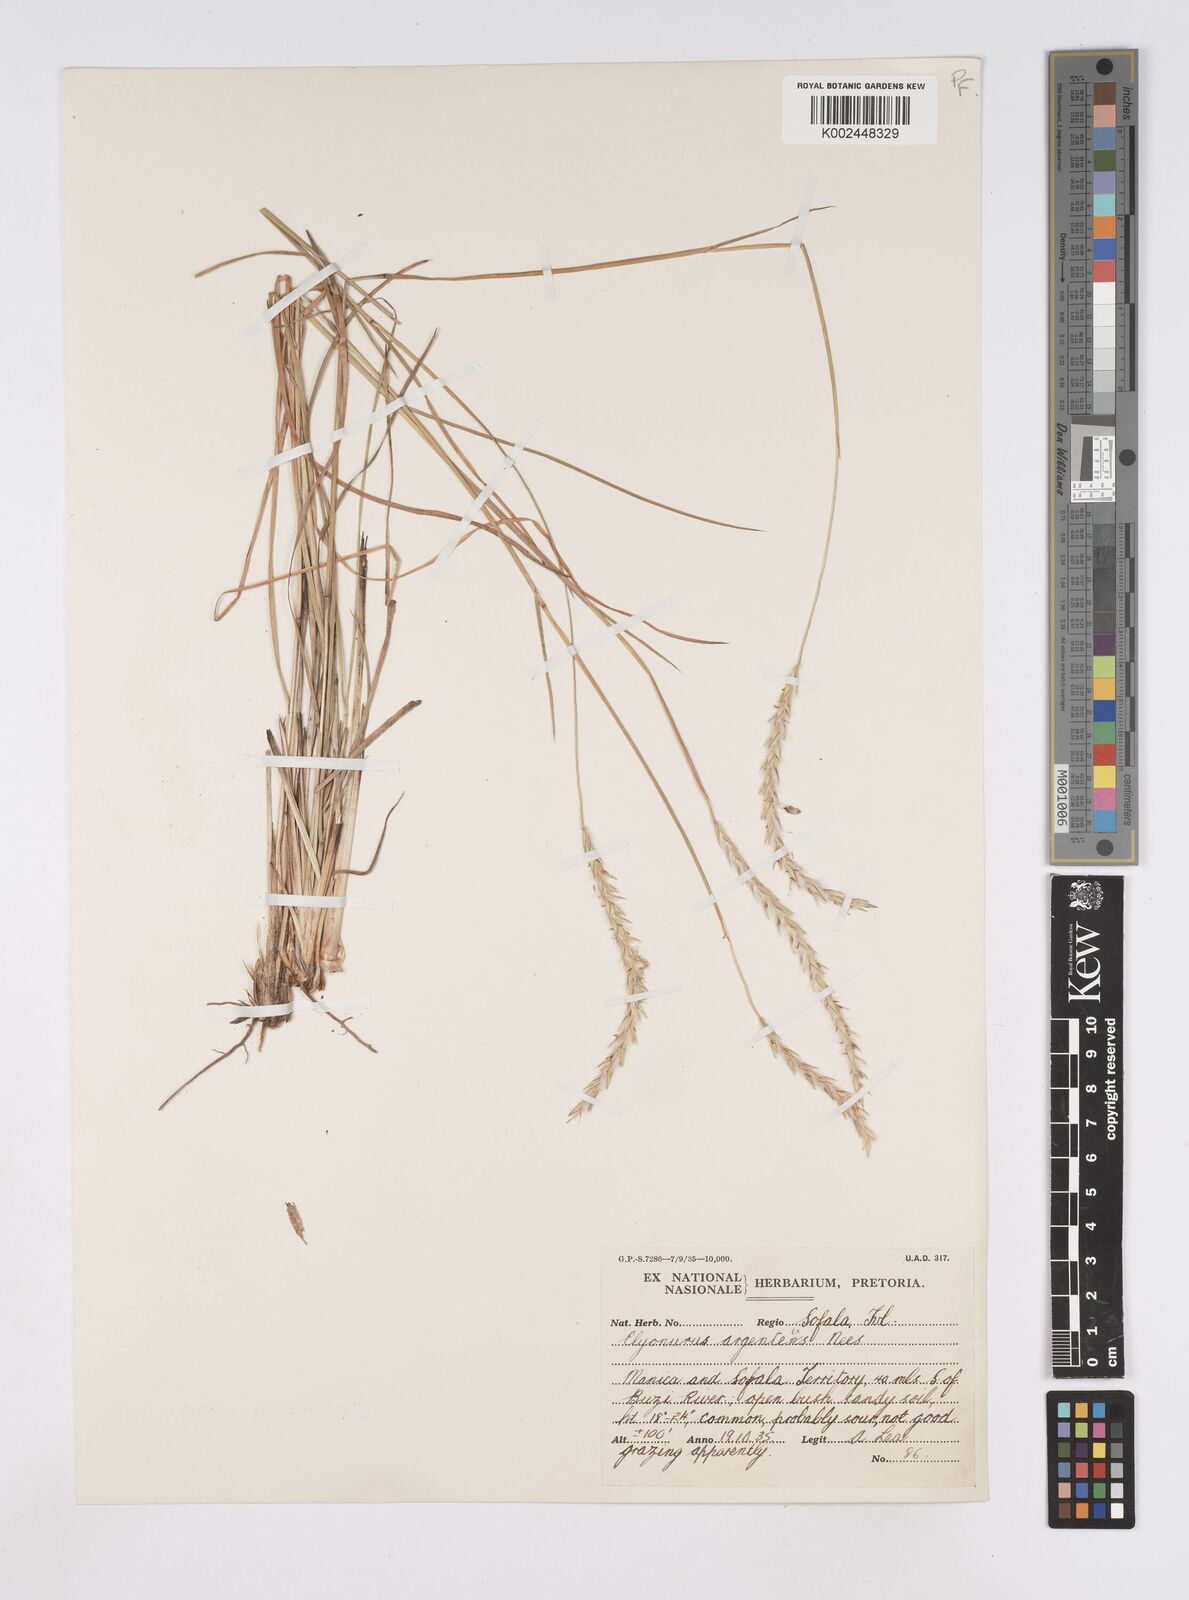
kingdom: Plantae
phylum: Tracheophyta
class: Liliopsida
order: Poales
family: Poaceae
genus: Elionurus
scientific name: Elionurus muticus
